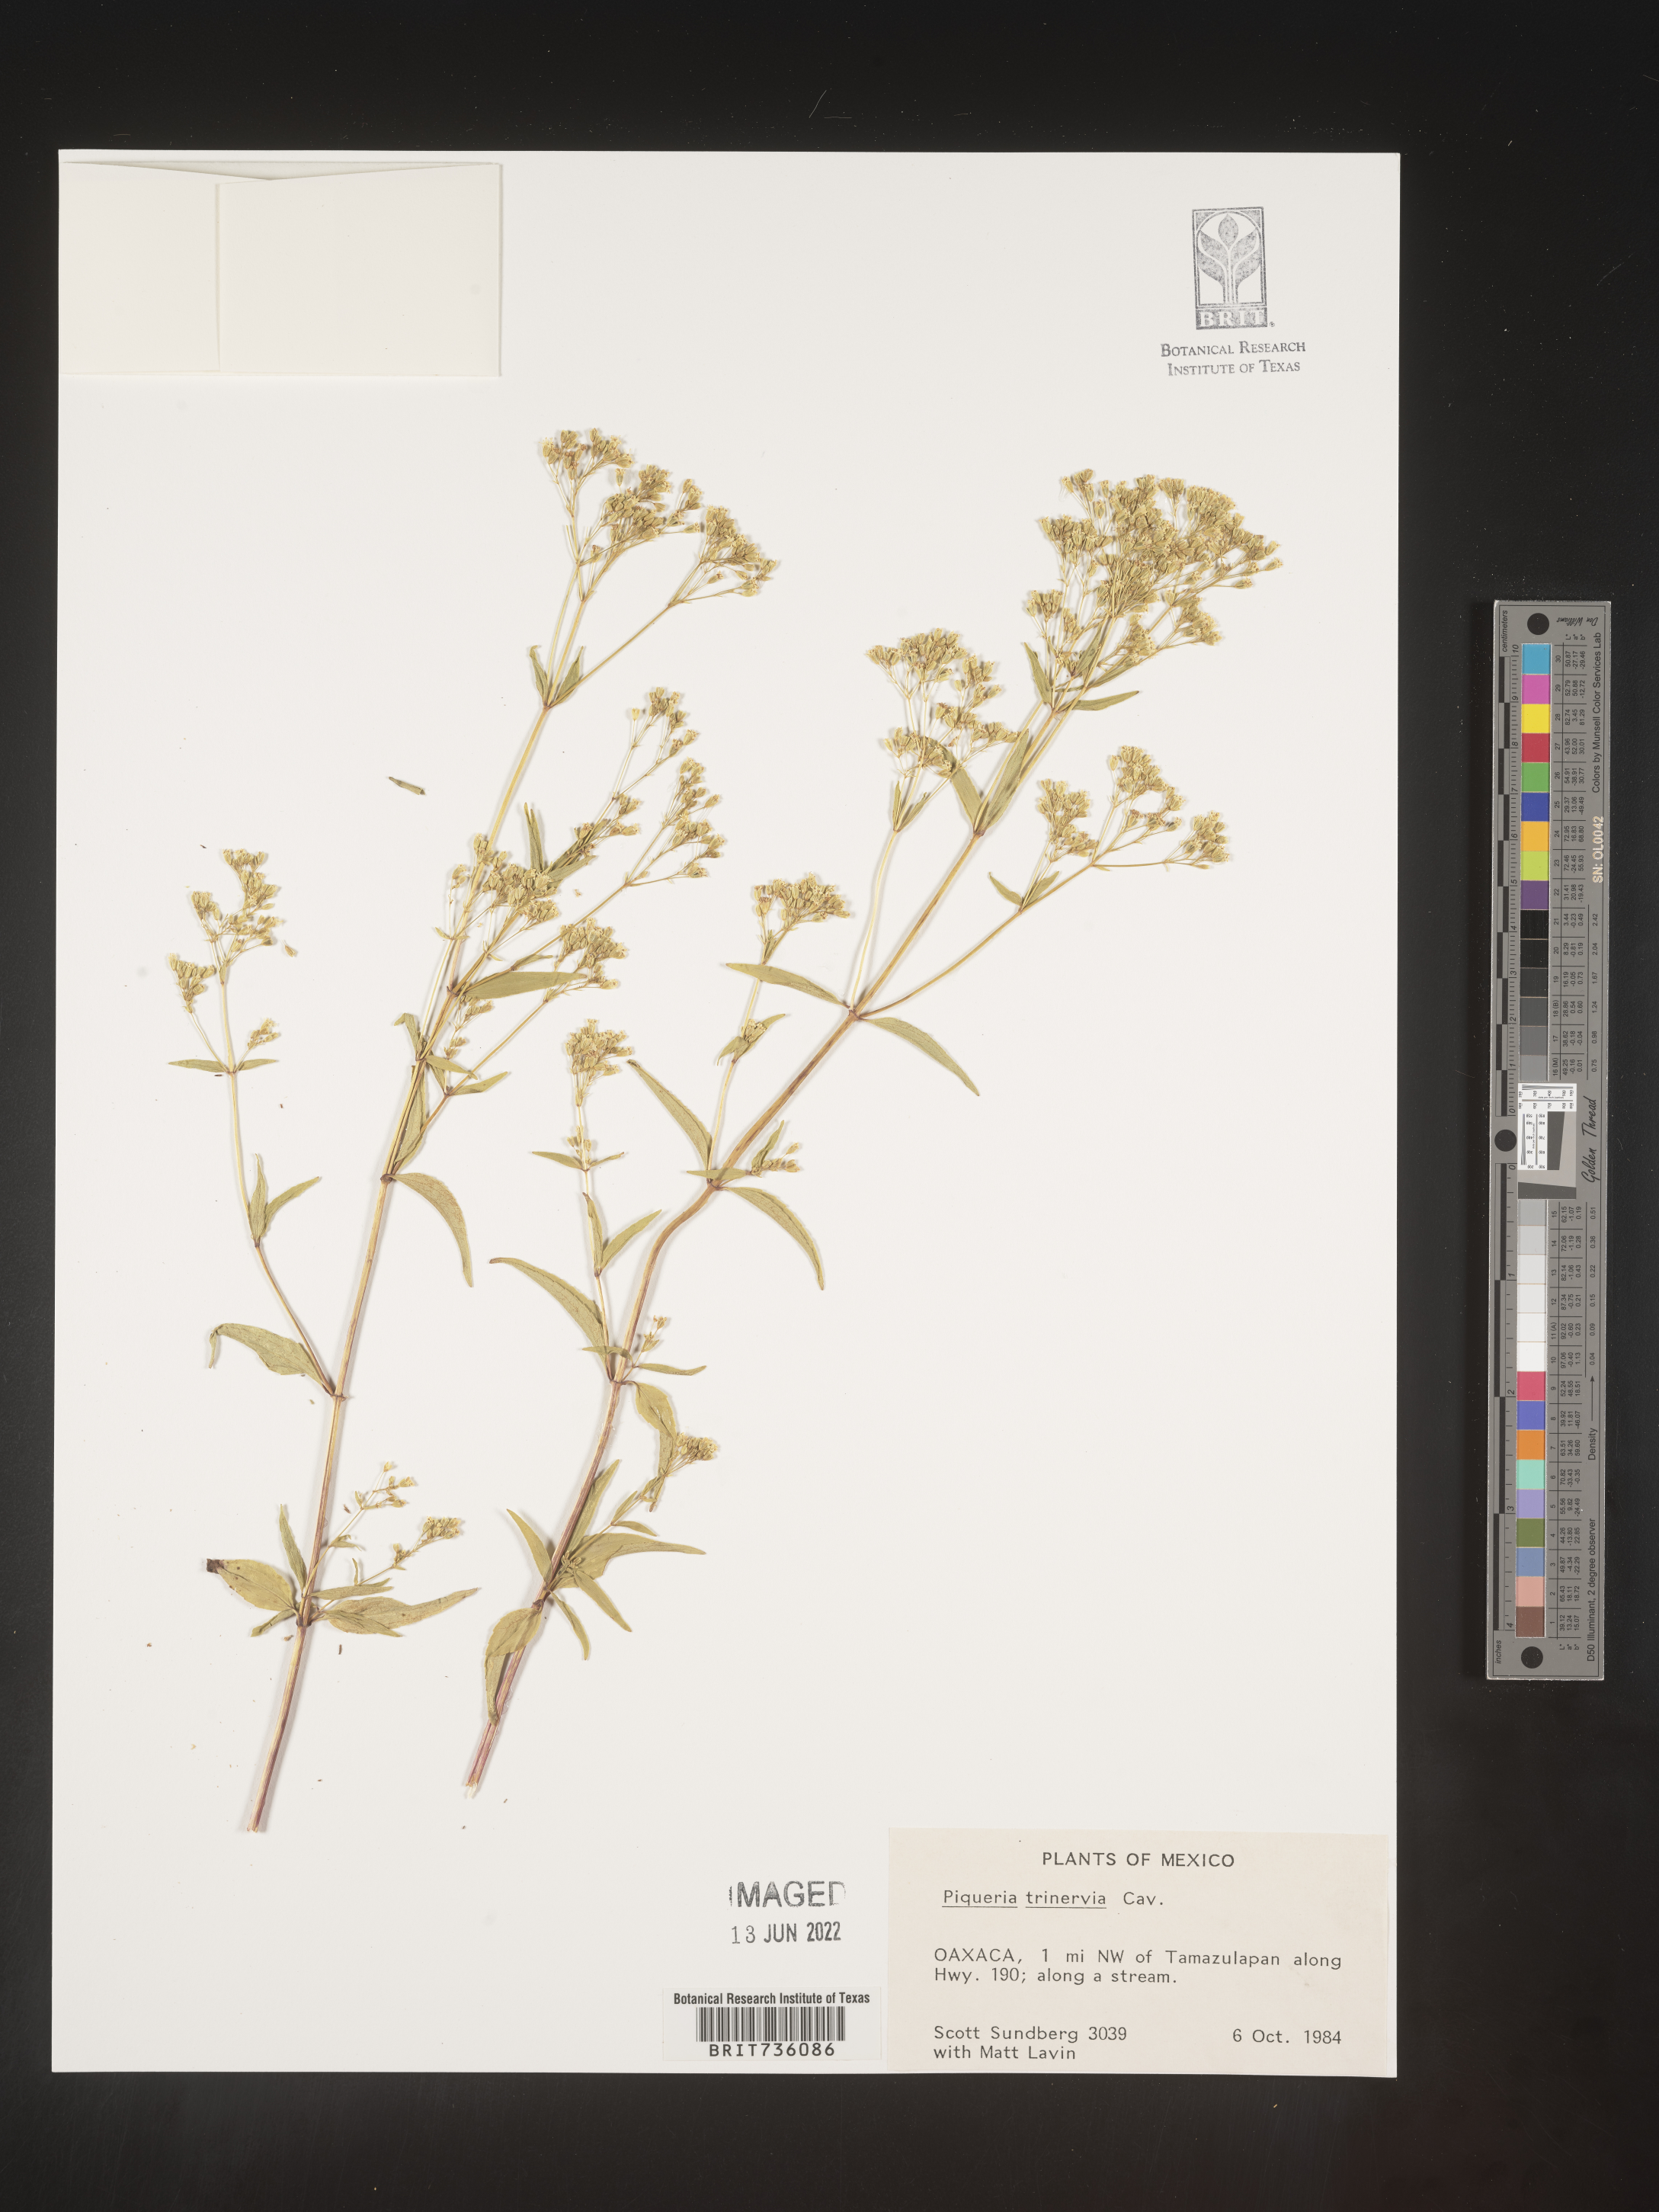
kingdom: Plantae
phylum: Tracheophyta
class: Magnoliopsida
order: Asterales
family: Asteraceae
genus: Piqueria
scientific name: Piqueria
